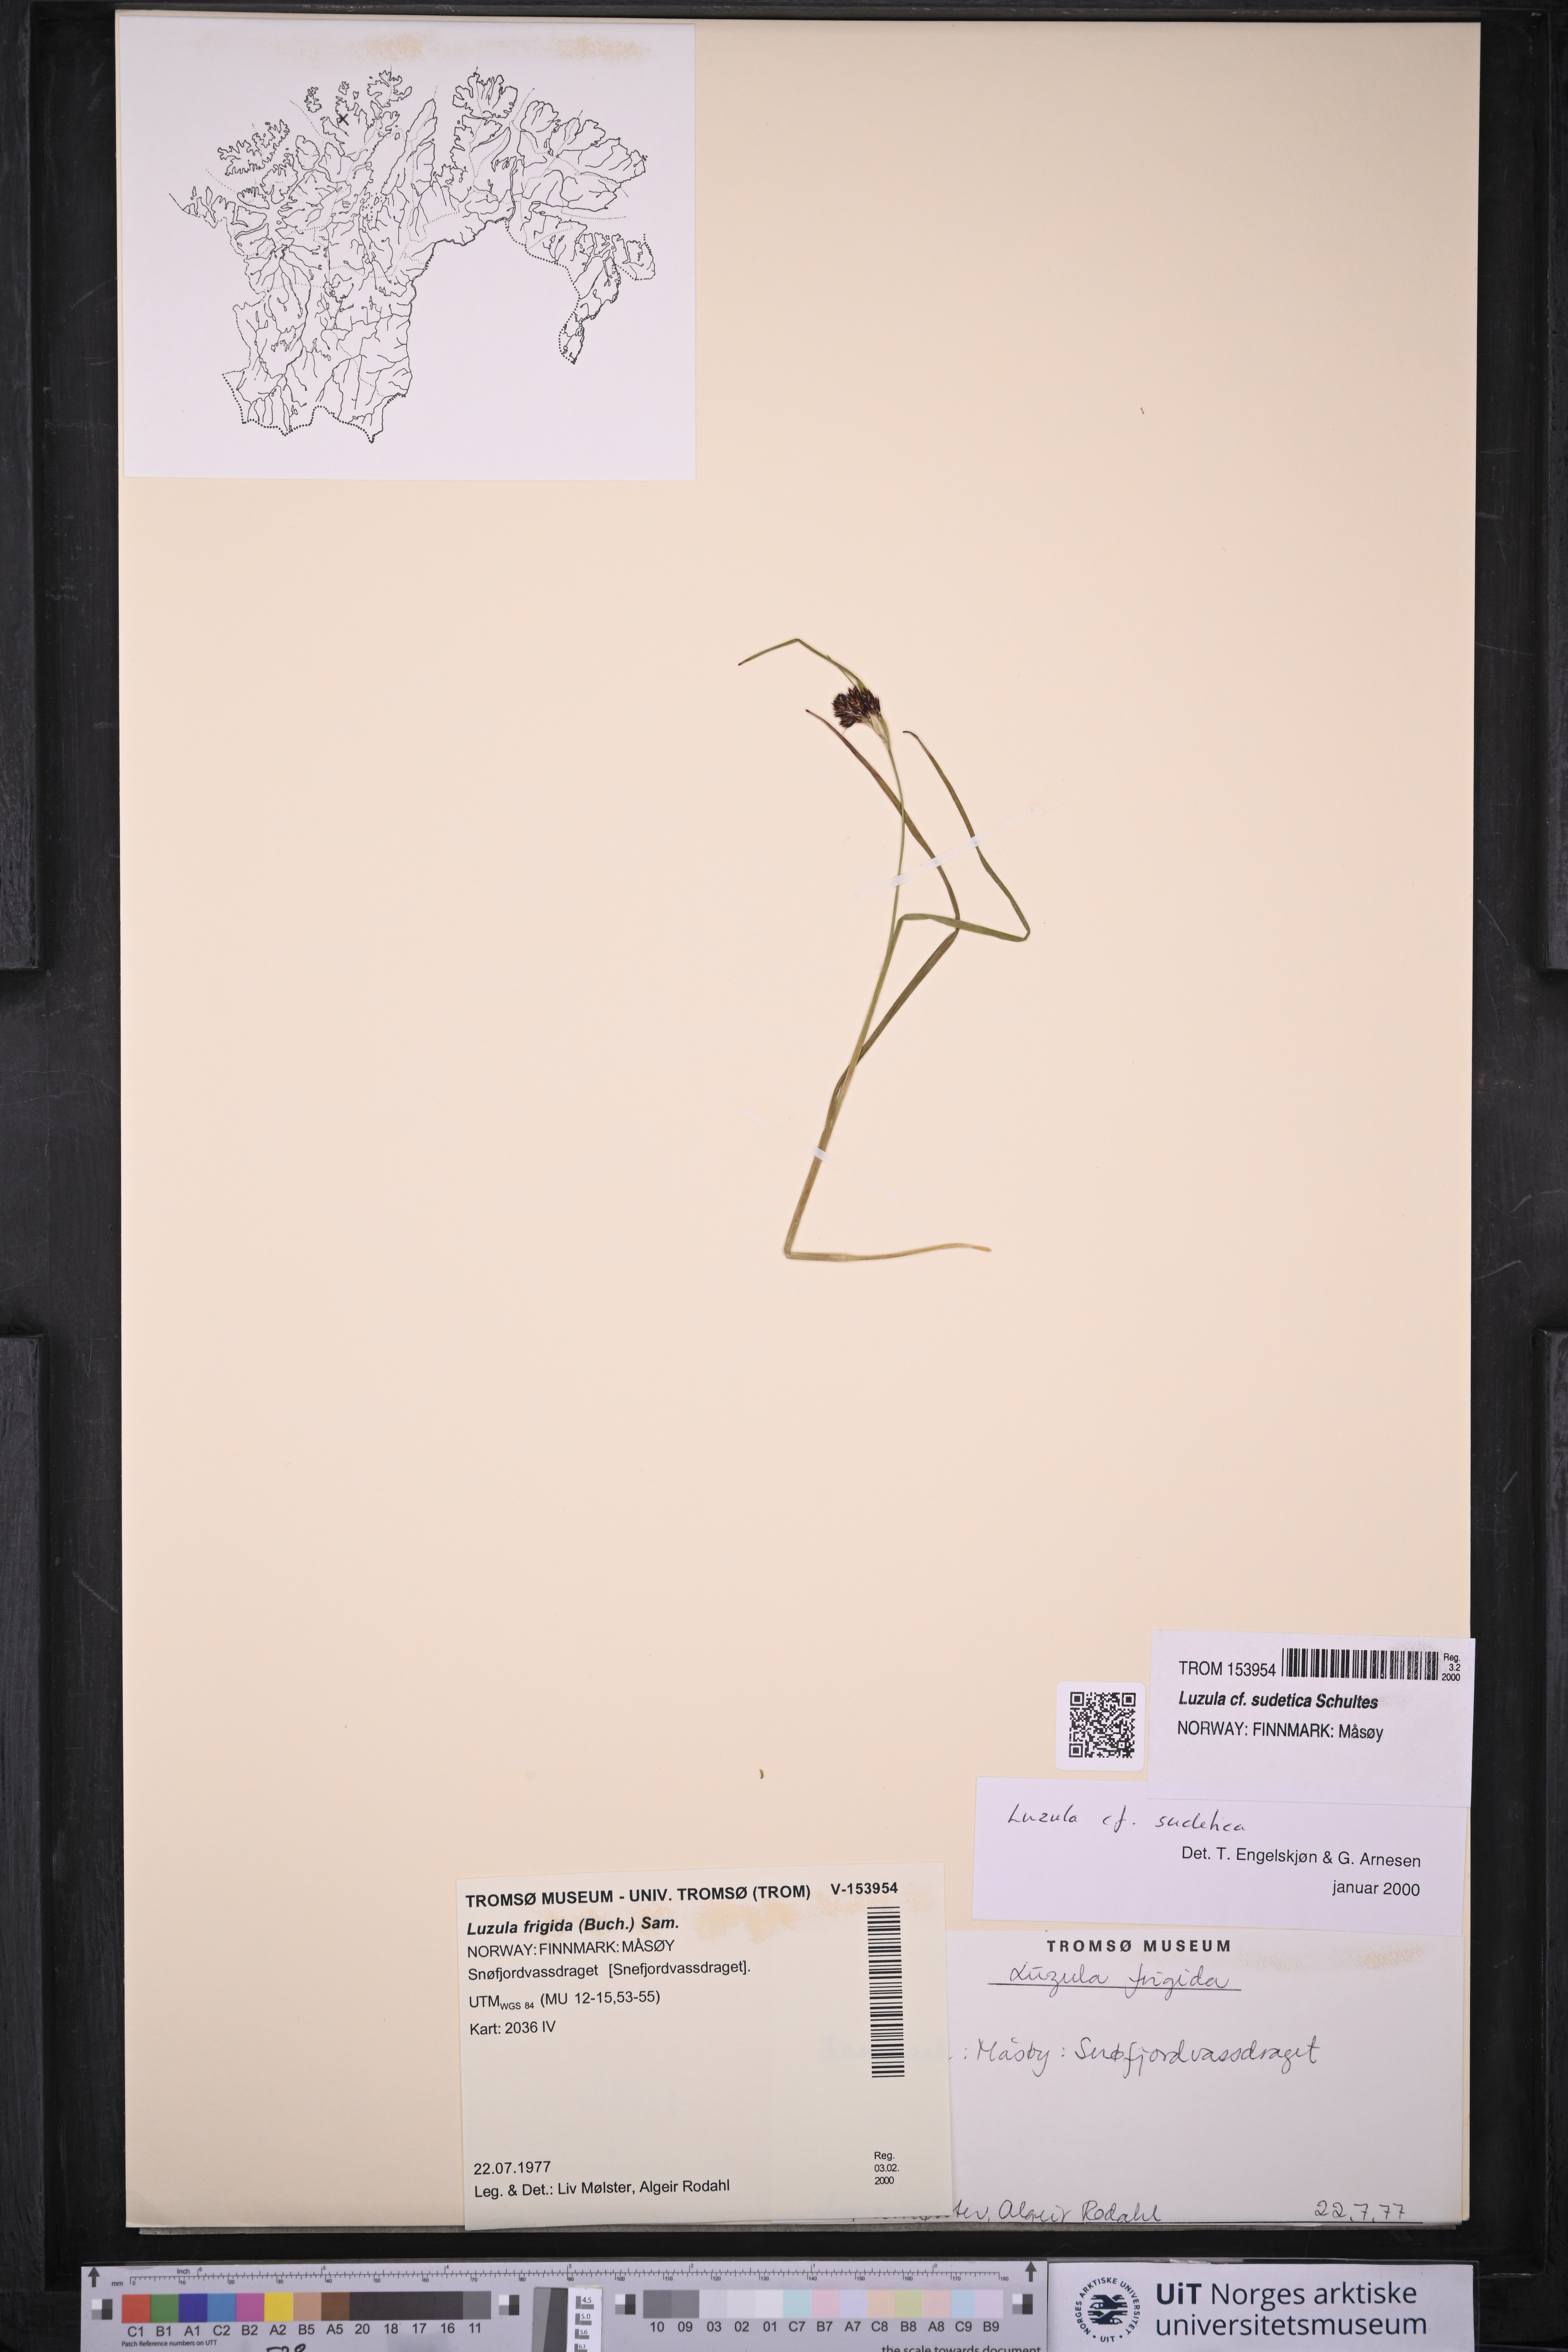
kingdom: Plantae
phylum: Tracheophyta
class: Liliopsida
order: Poales
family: Juncaceae
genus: Luzula
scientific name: Luzula sudetica
